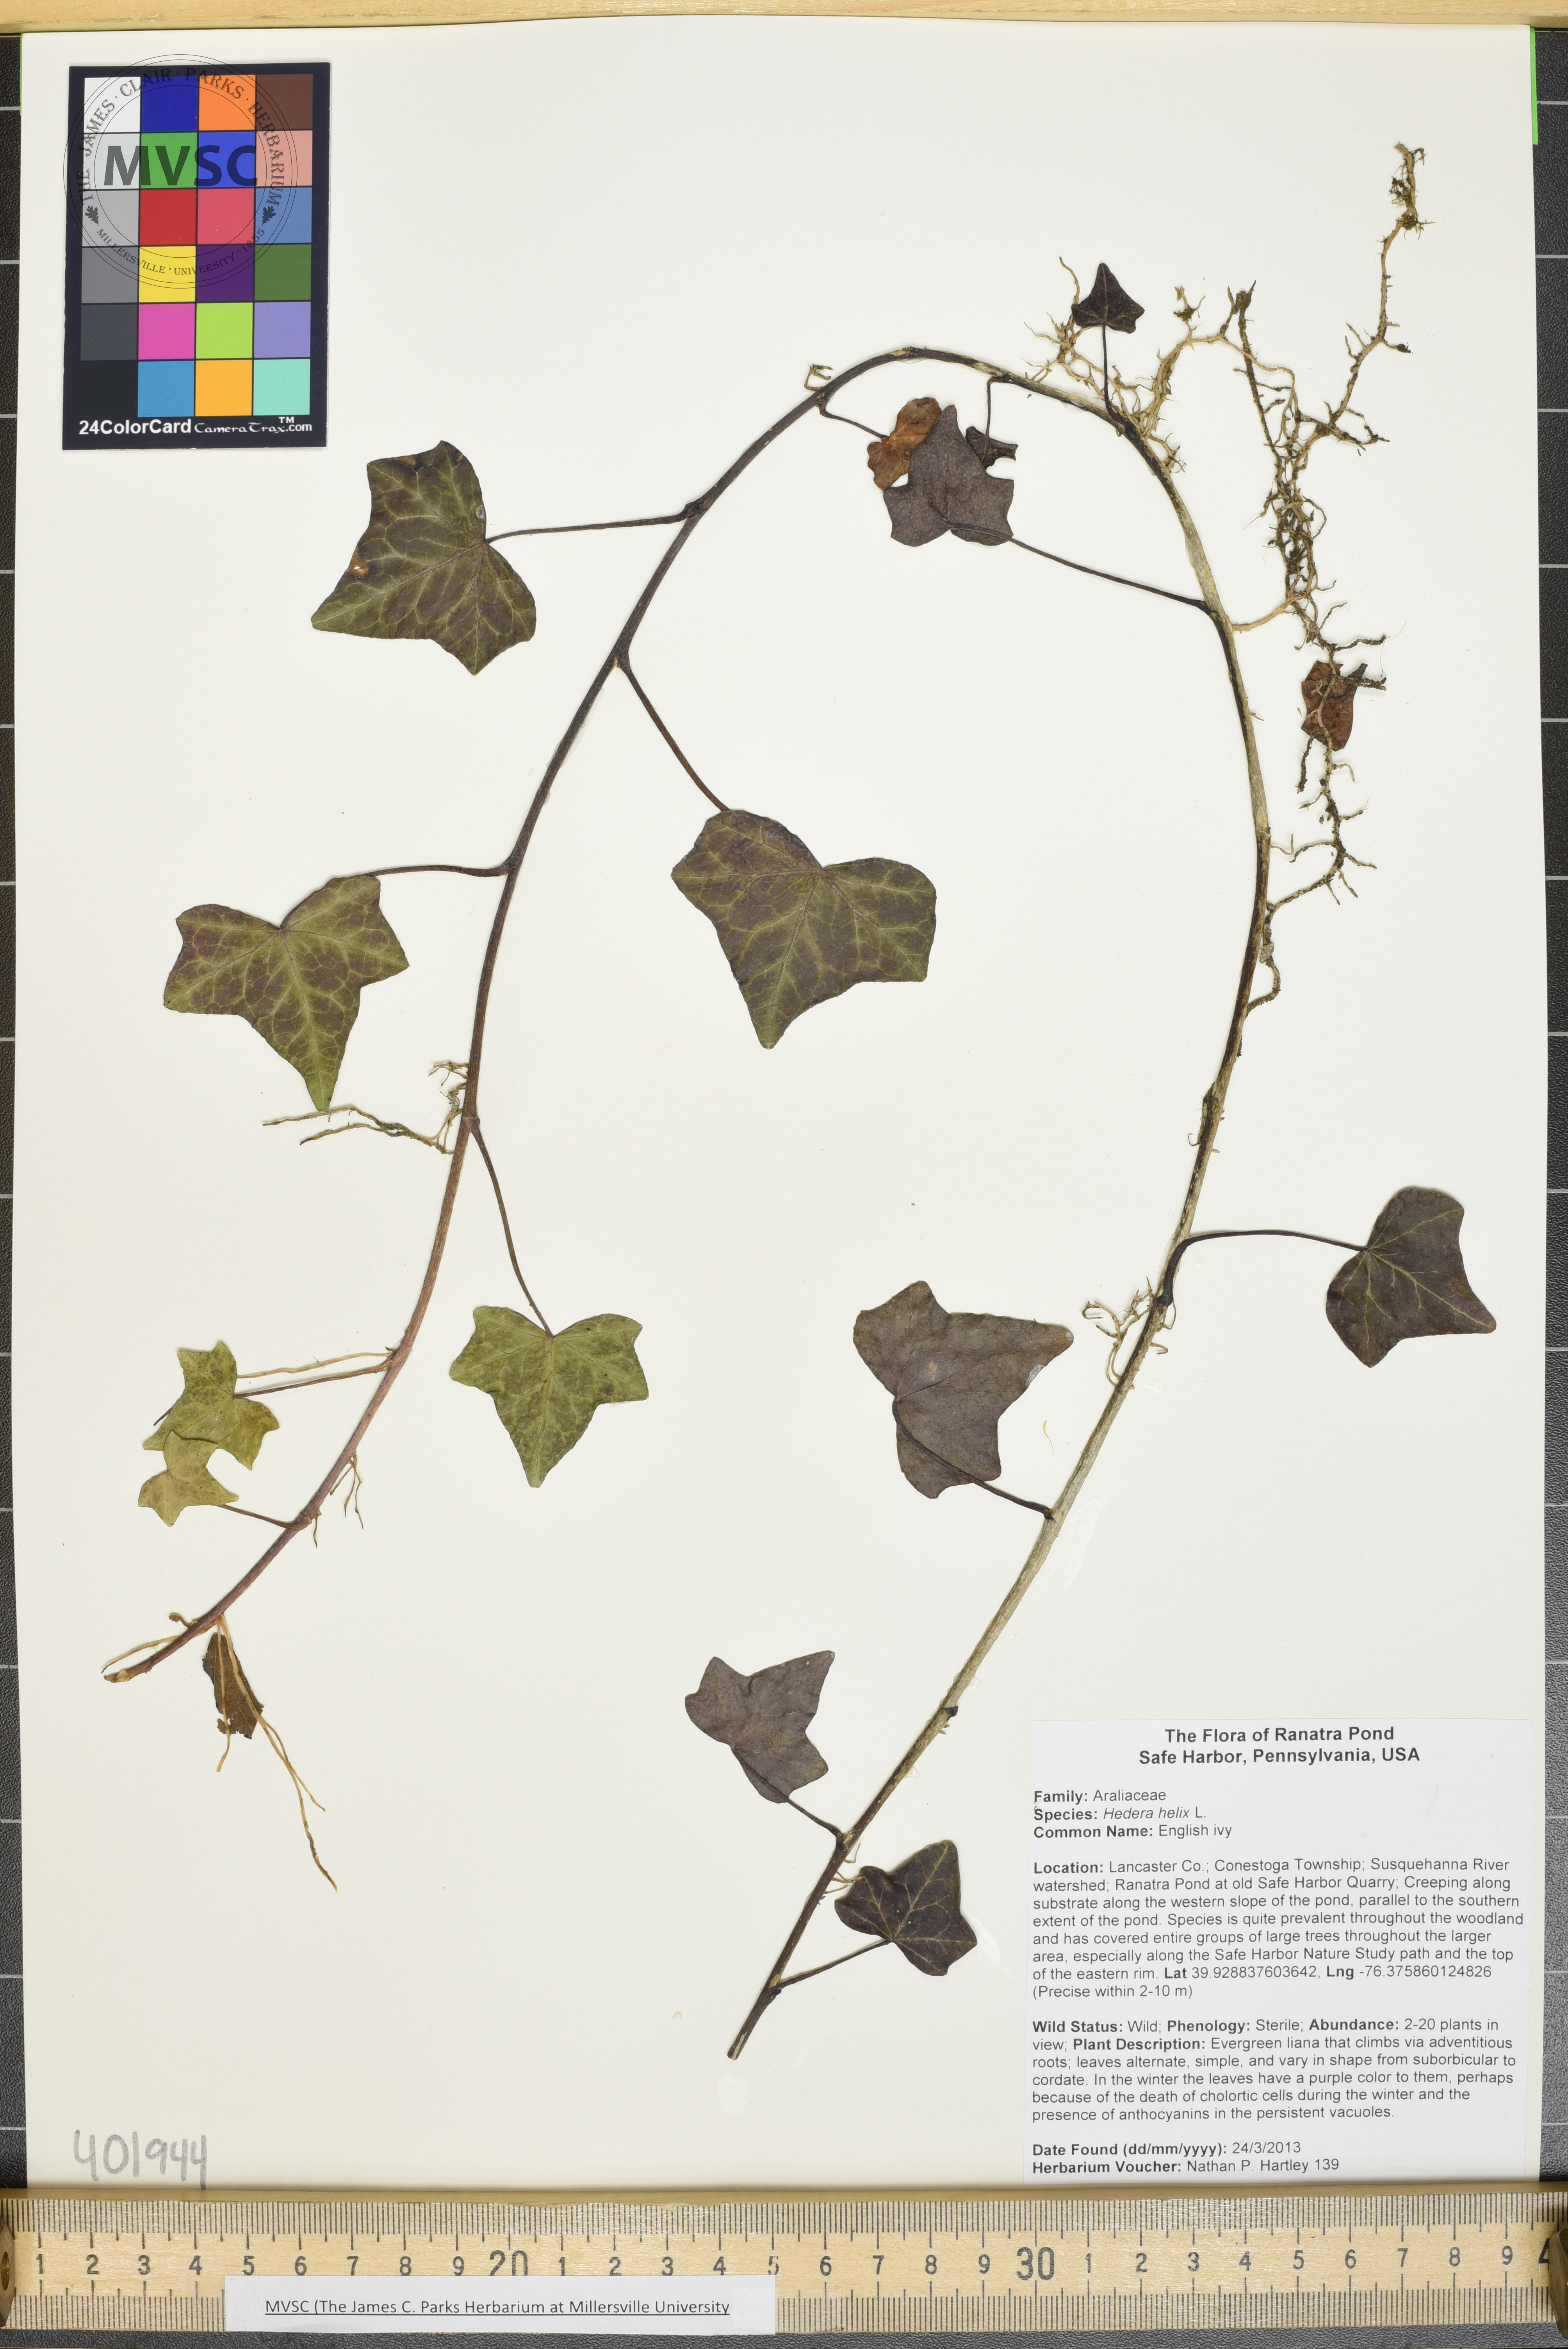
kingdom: Plantae
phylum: Tracheophyta
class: Magnoliopsida
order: Apiales
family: Araliaceae
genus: Hedera
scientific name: Hedera helix
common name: English ivy
